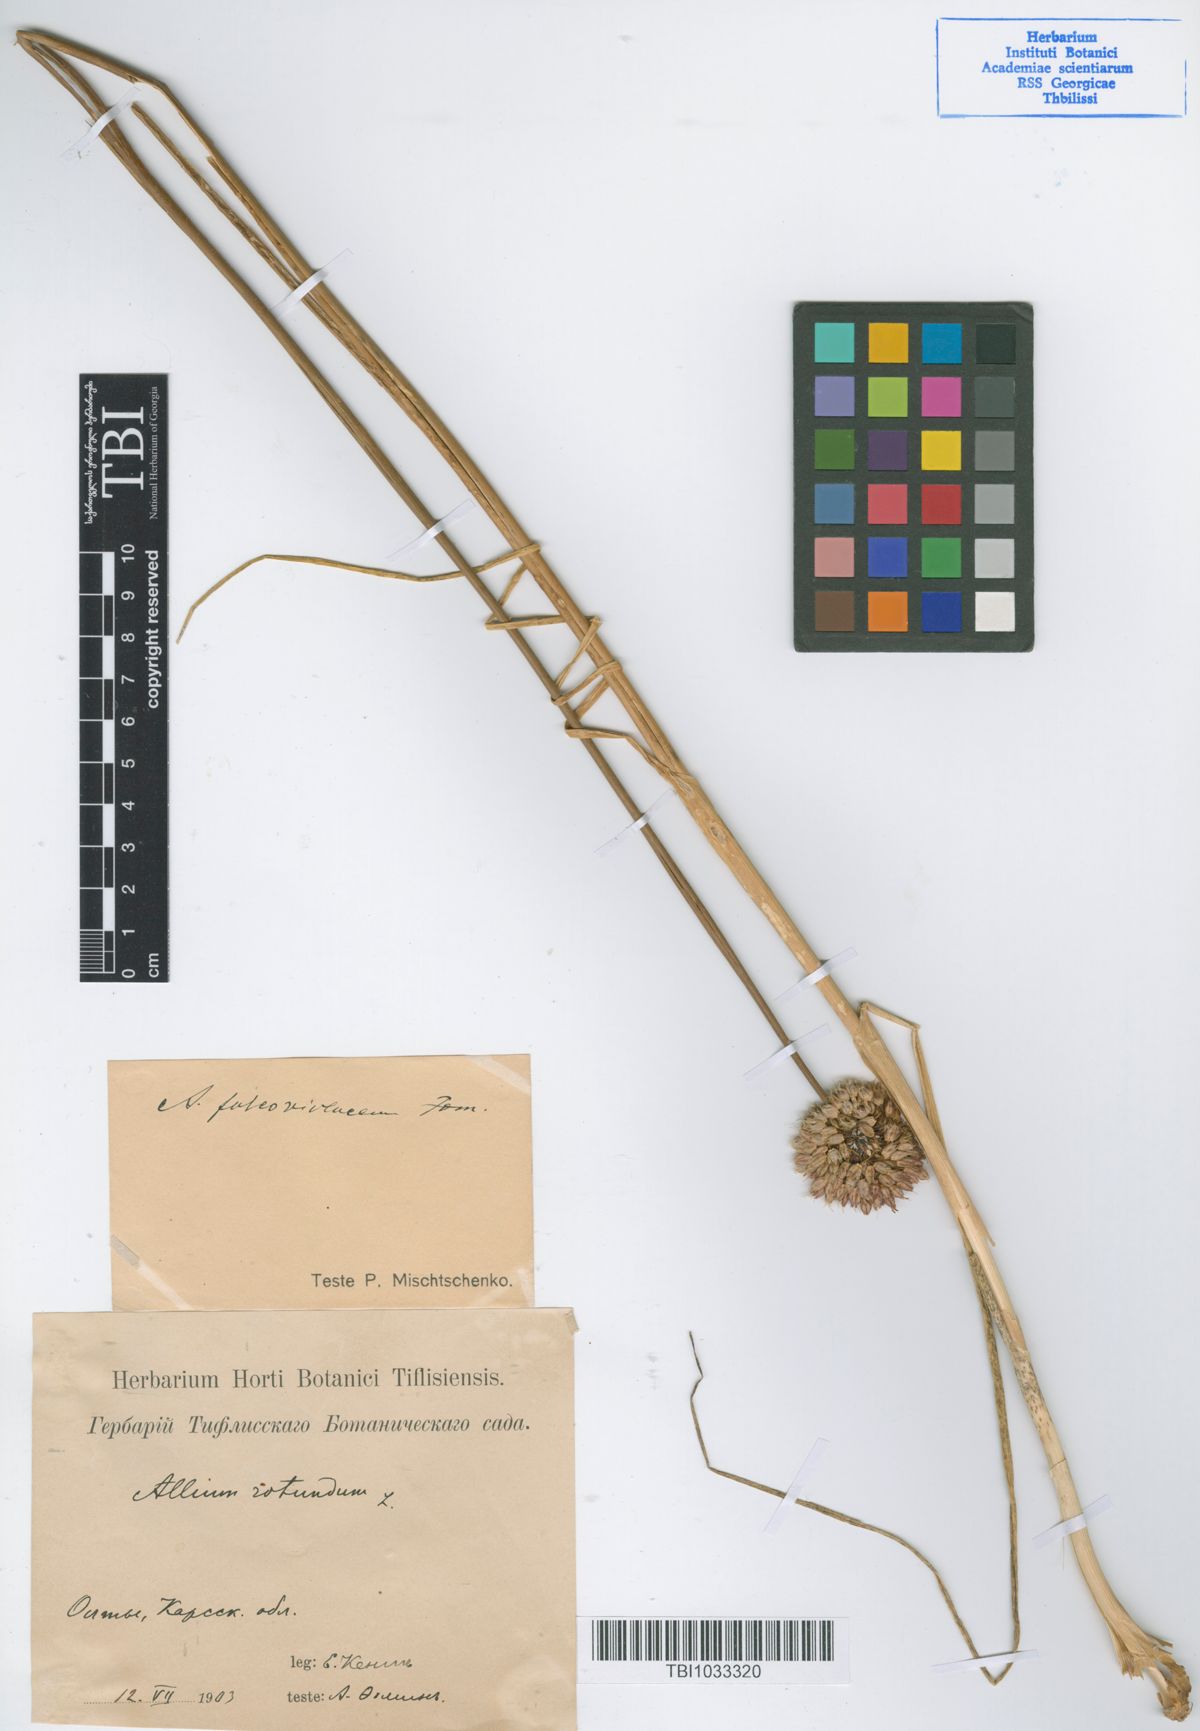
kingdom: Plantae
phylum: Tracheophyta
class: Liliopsida
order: Asparagales
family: Amaryllidaceae
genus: Allium
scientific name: Allium fuscoviolaceum
